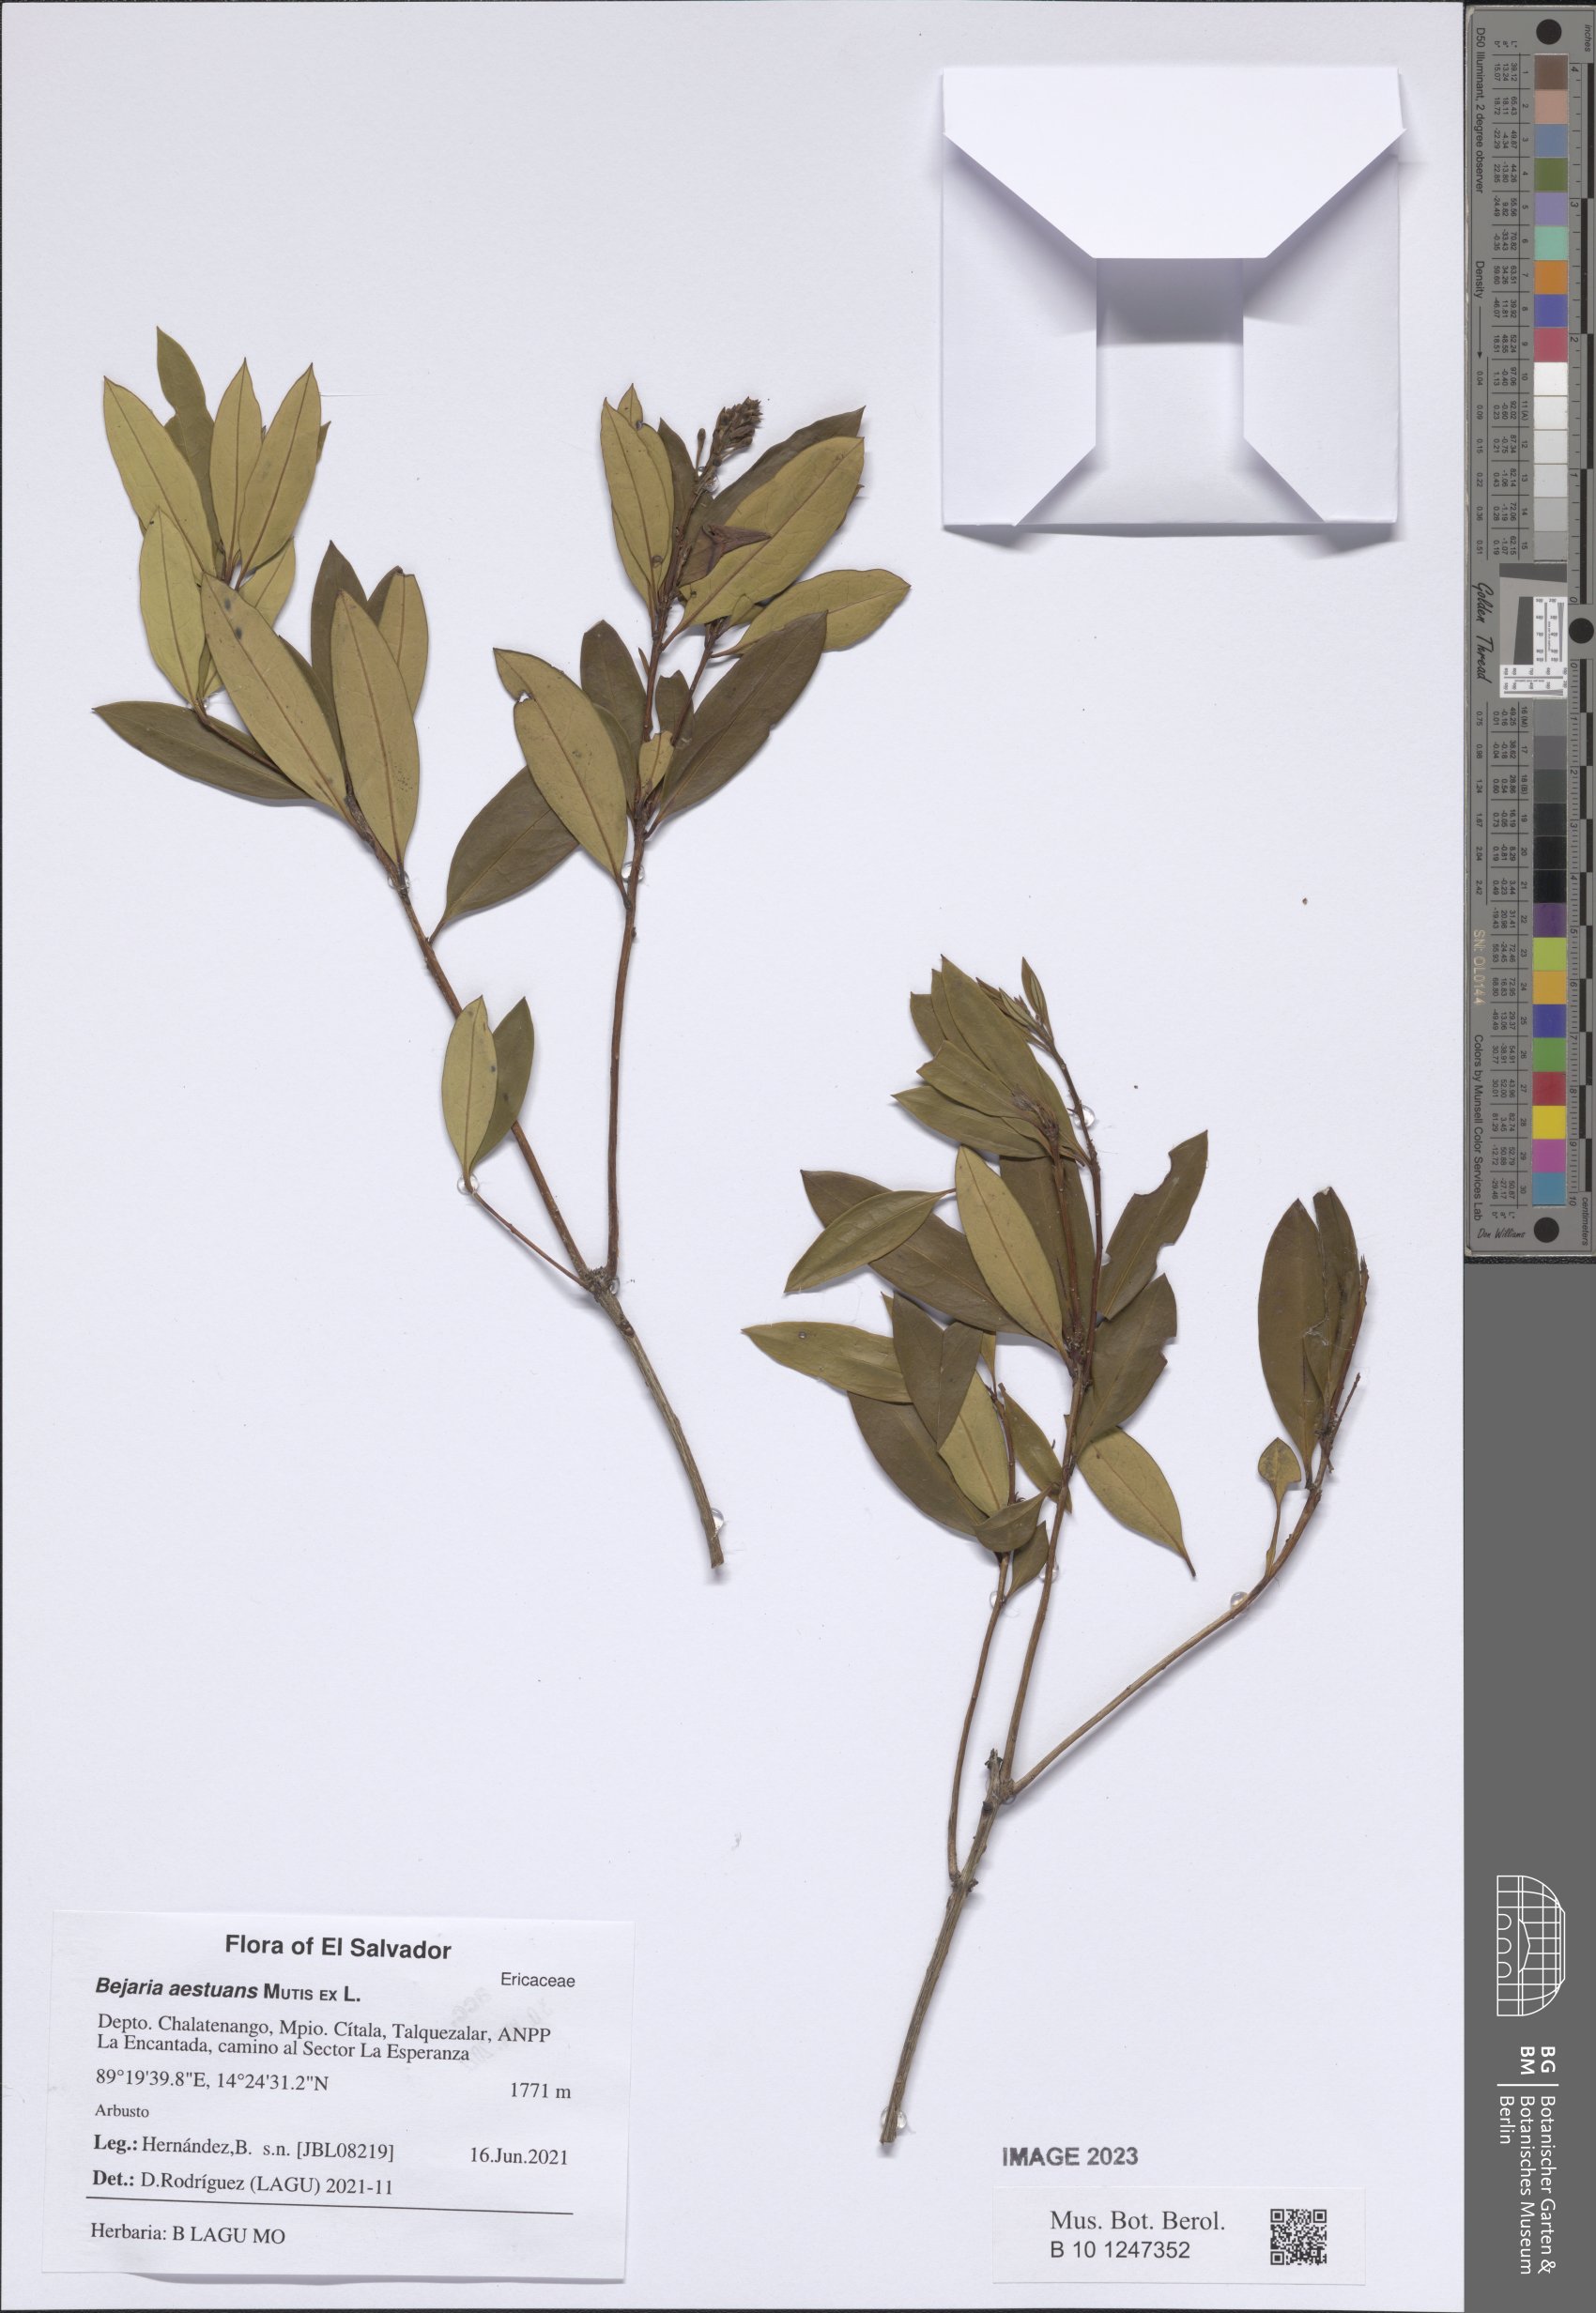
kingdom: Plantae
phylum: Tracheophyta
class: Magnoliopsida
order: Ericales
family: Ericaceae
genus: Bejaria
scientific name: Bejaria aestuans
